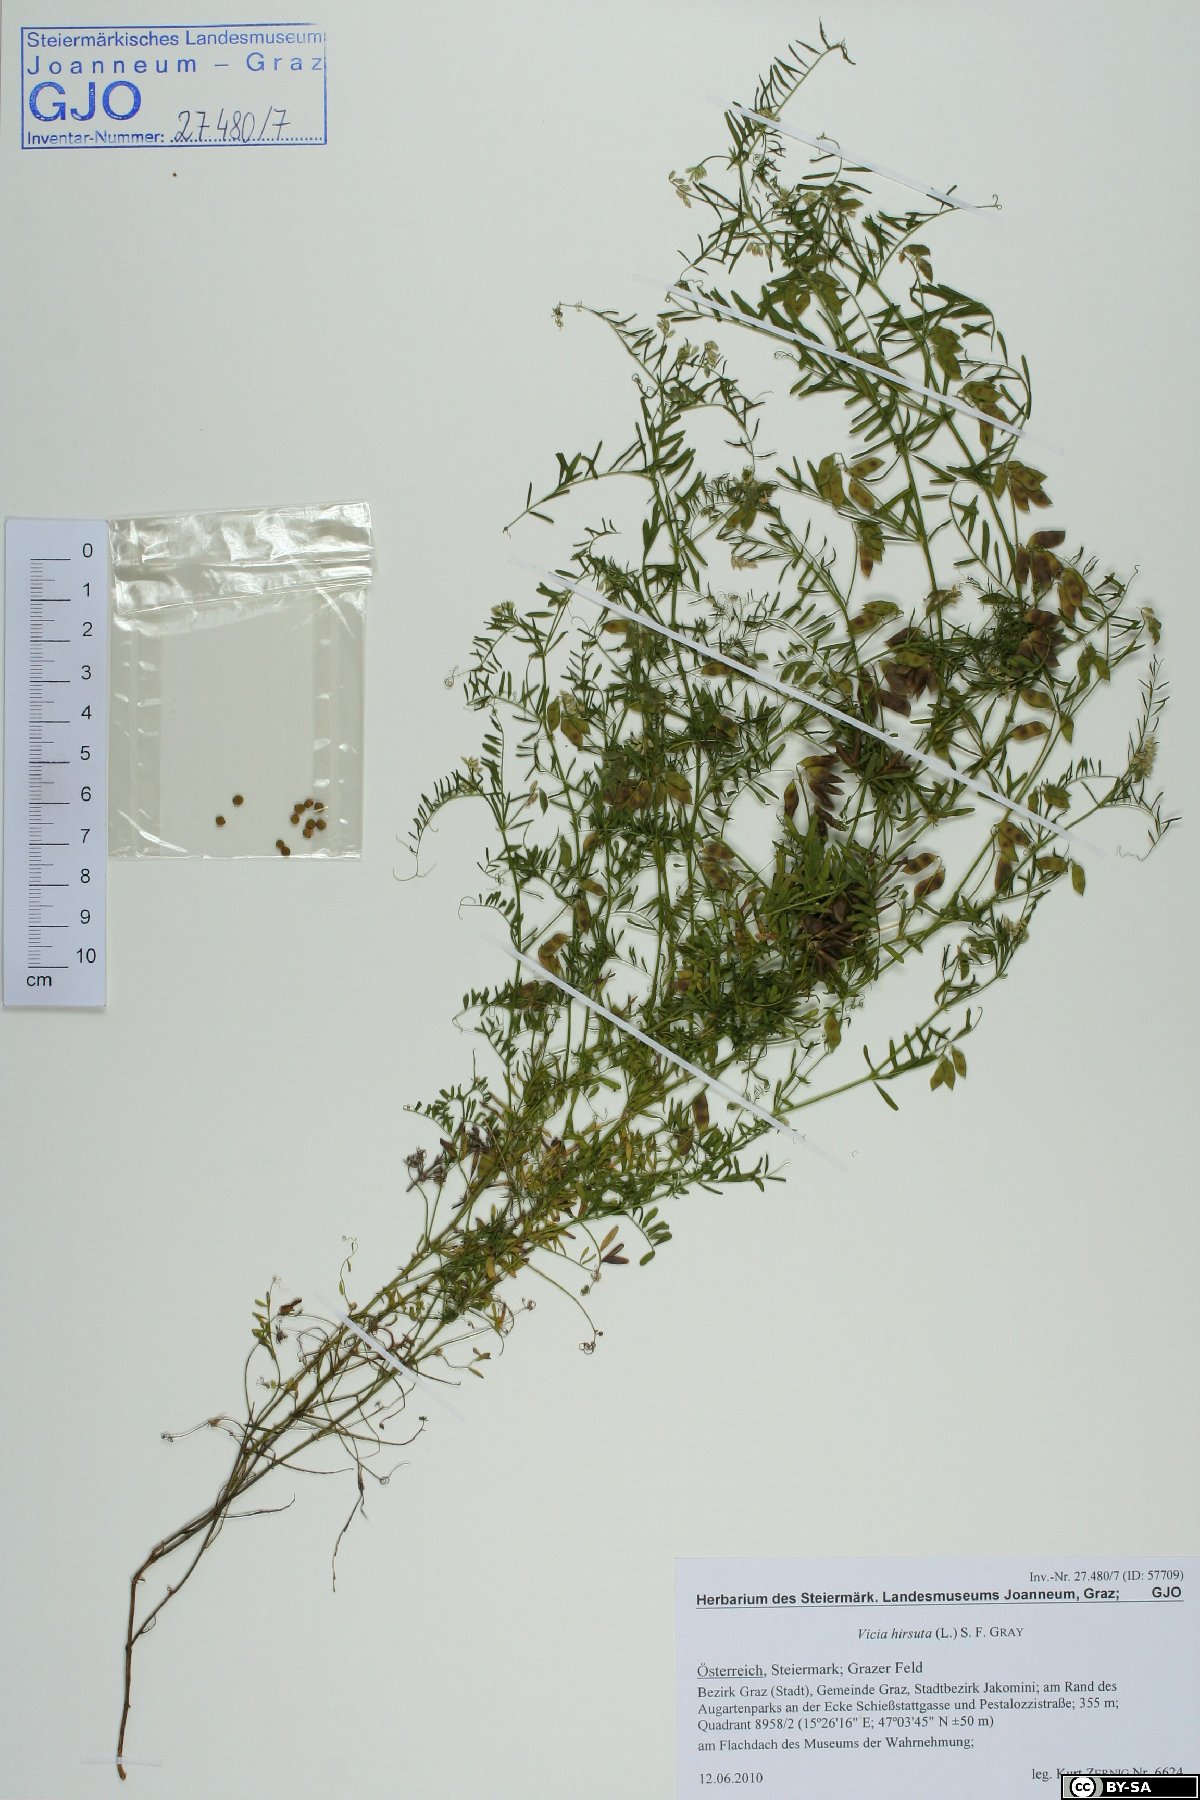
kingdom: Plantae
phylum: Tracheophyta
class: Magnoliopsida
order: Fabales
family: Fabaceae
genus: Vicia
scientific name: Vicia hirsuta
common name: Tiny vetch
